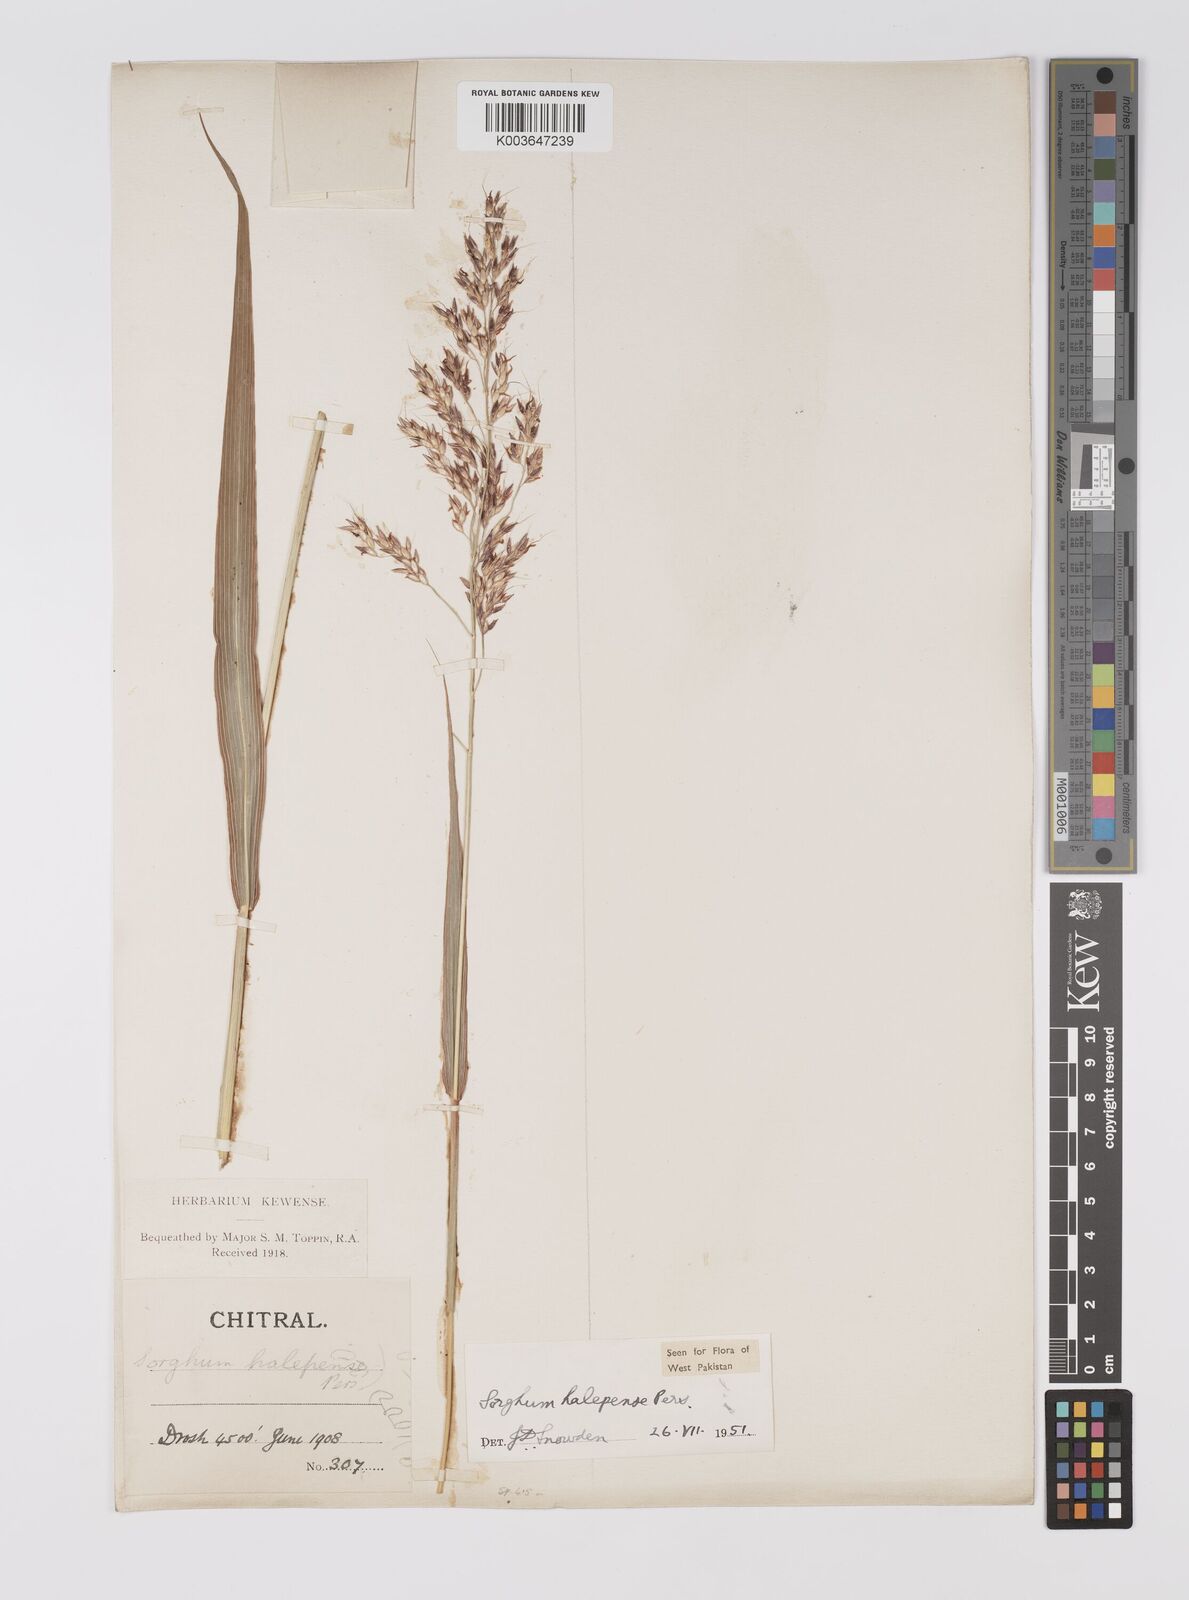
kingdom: Plantae
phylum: Tracheophyta
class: Liliopsida
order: Poales
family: Poaceae
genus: Sorghum
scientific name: Sorghum halepense
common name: Johnson-grass
